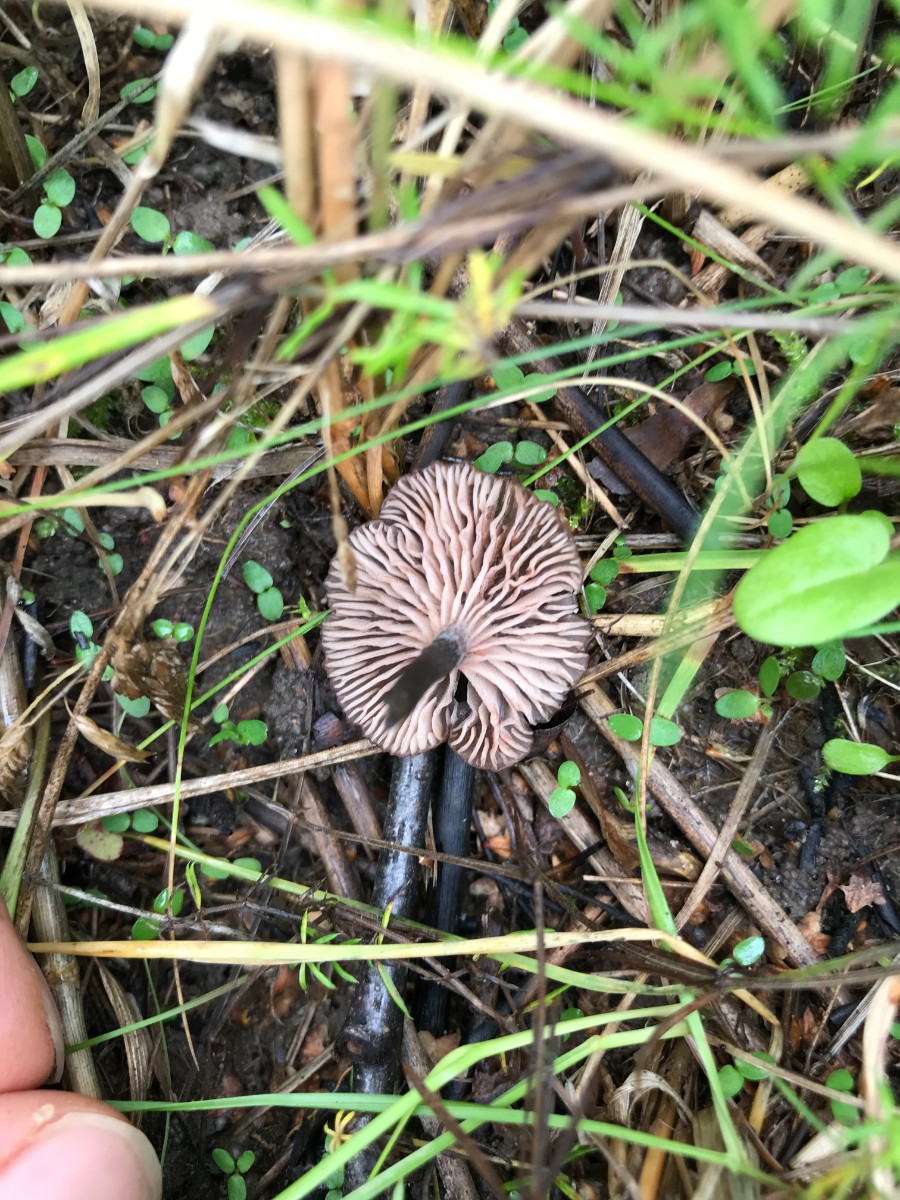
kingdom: Fungi
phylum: Basidiomycota
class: Agaricomycetes
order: Agaricales
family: Entolomataceae
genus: Entoloma
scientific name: Entoloma incarnatofuscescens
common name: tragt-rødblad
